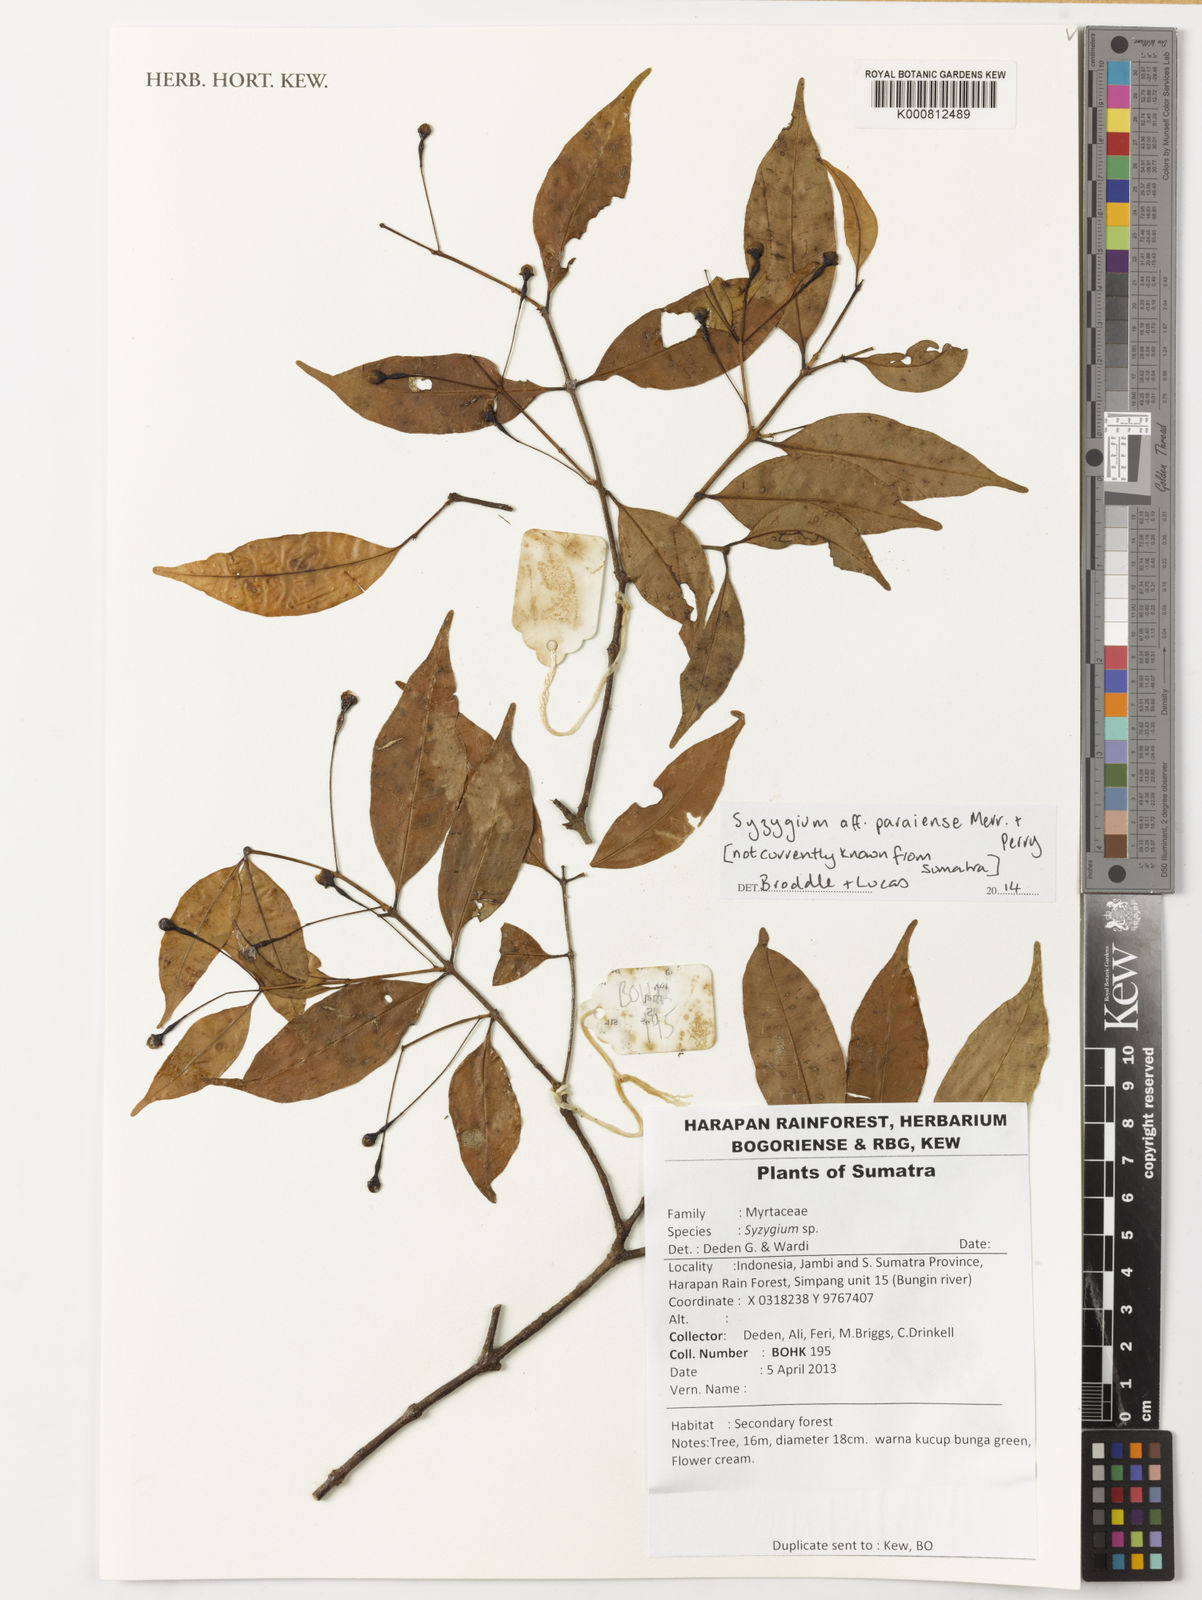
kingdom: Plantae
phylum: Tracheophyta
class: Magnoliopsida
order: Myrtales
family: Myrtaceae
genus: Syzygium
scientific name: Syzygium filiforme
